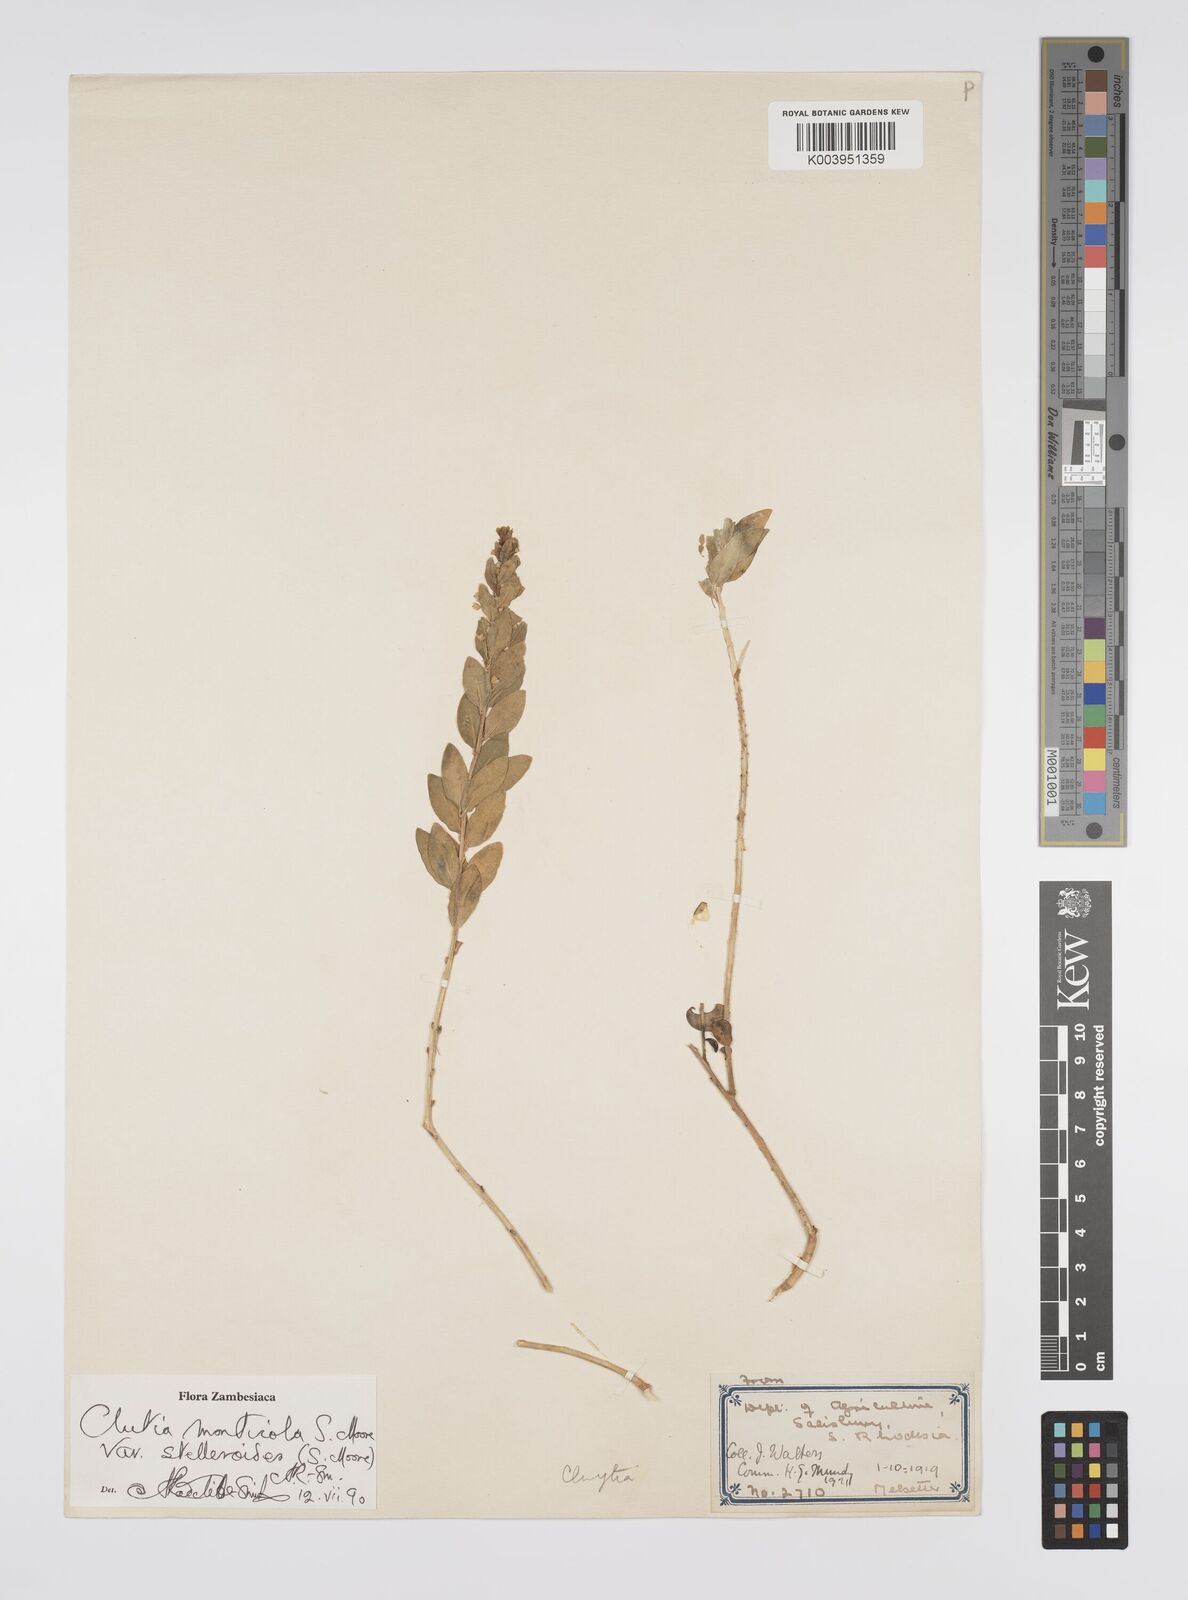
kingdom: Plantae
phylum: Tracheophyta
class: Magnoliopsida
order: Malpighiales
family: Peraceae
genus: Clutia
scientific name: Clutia monticola
